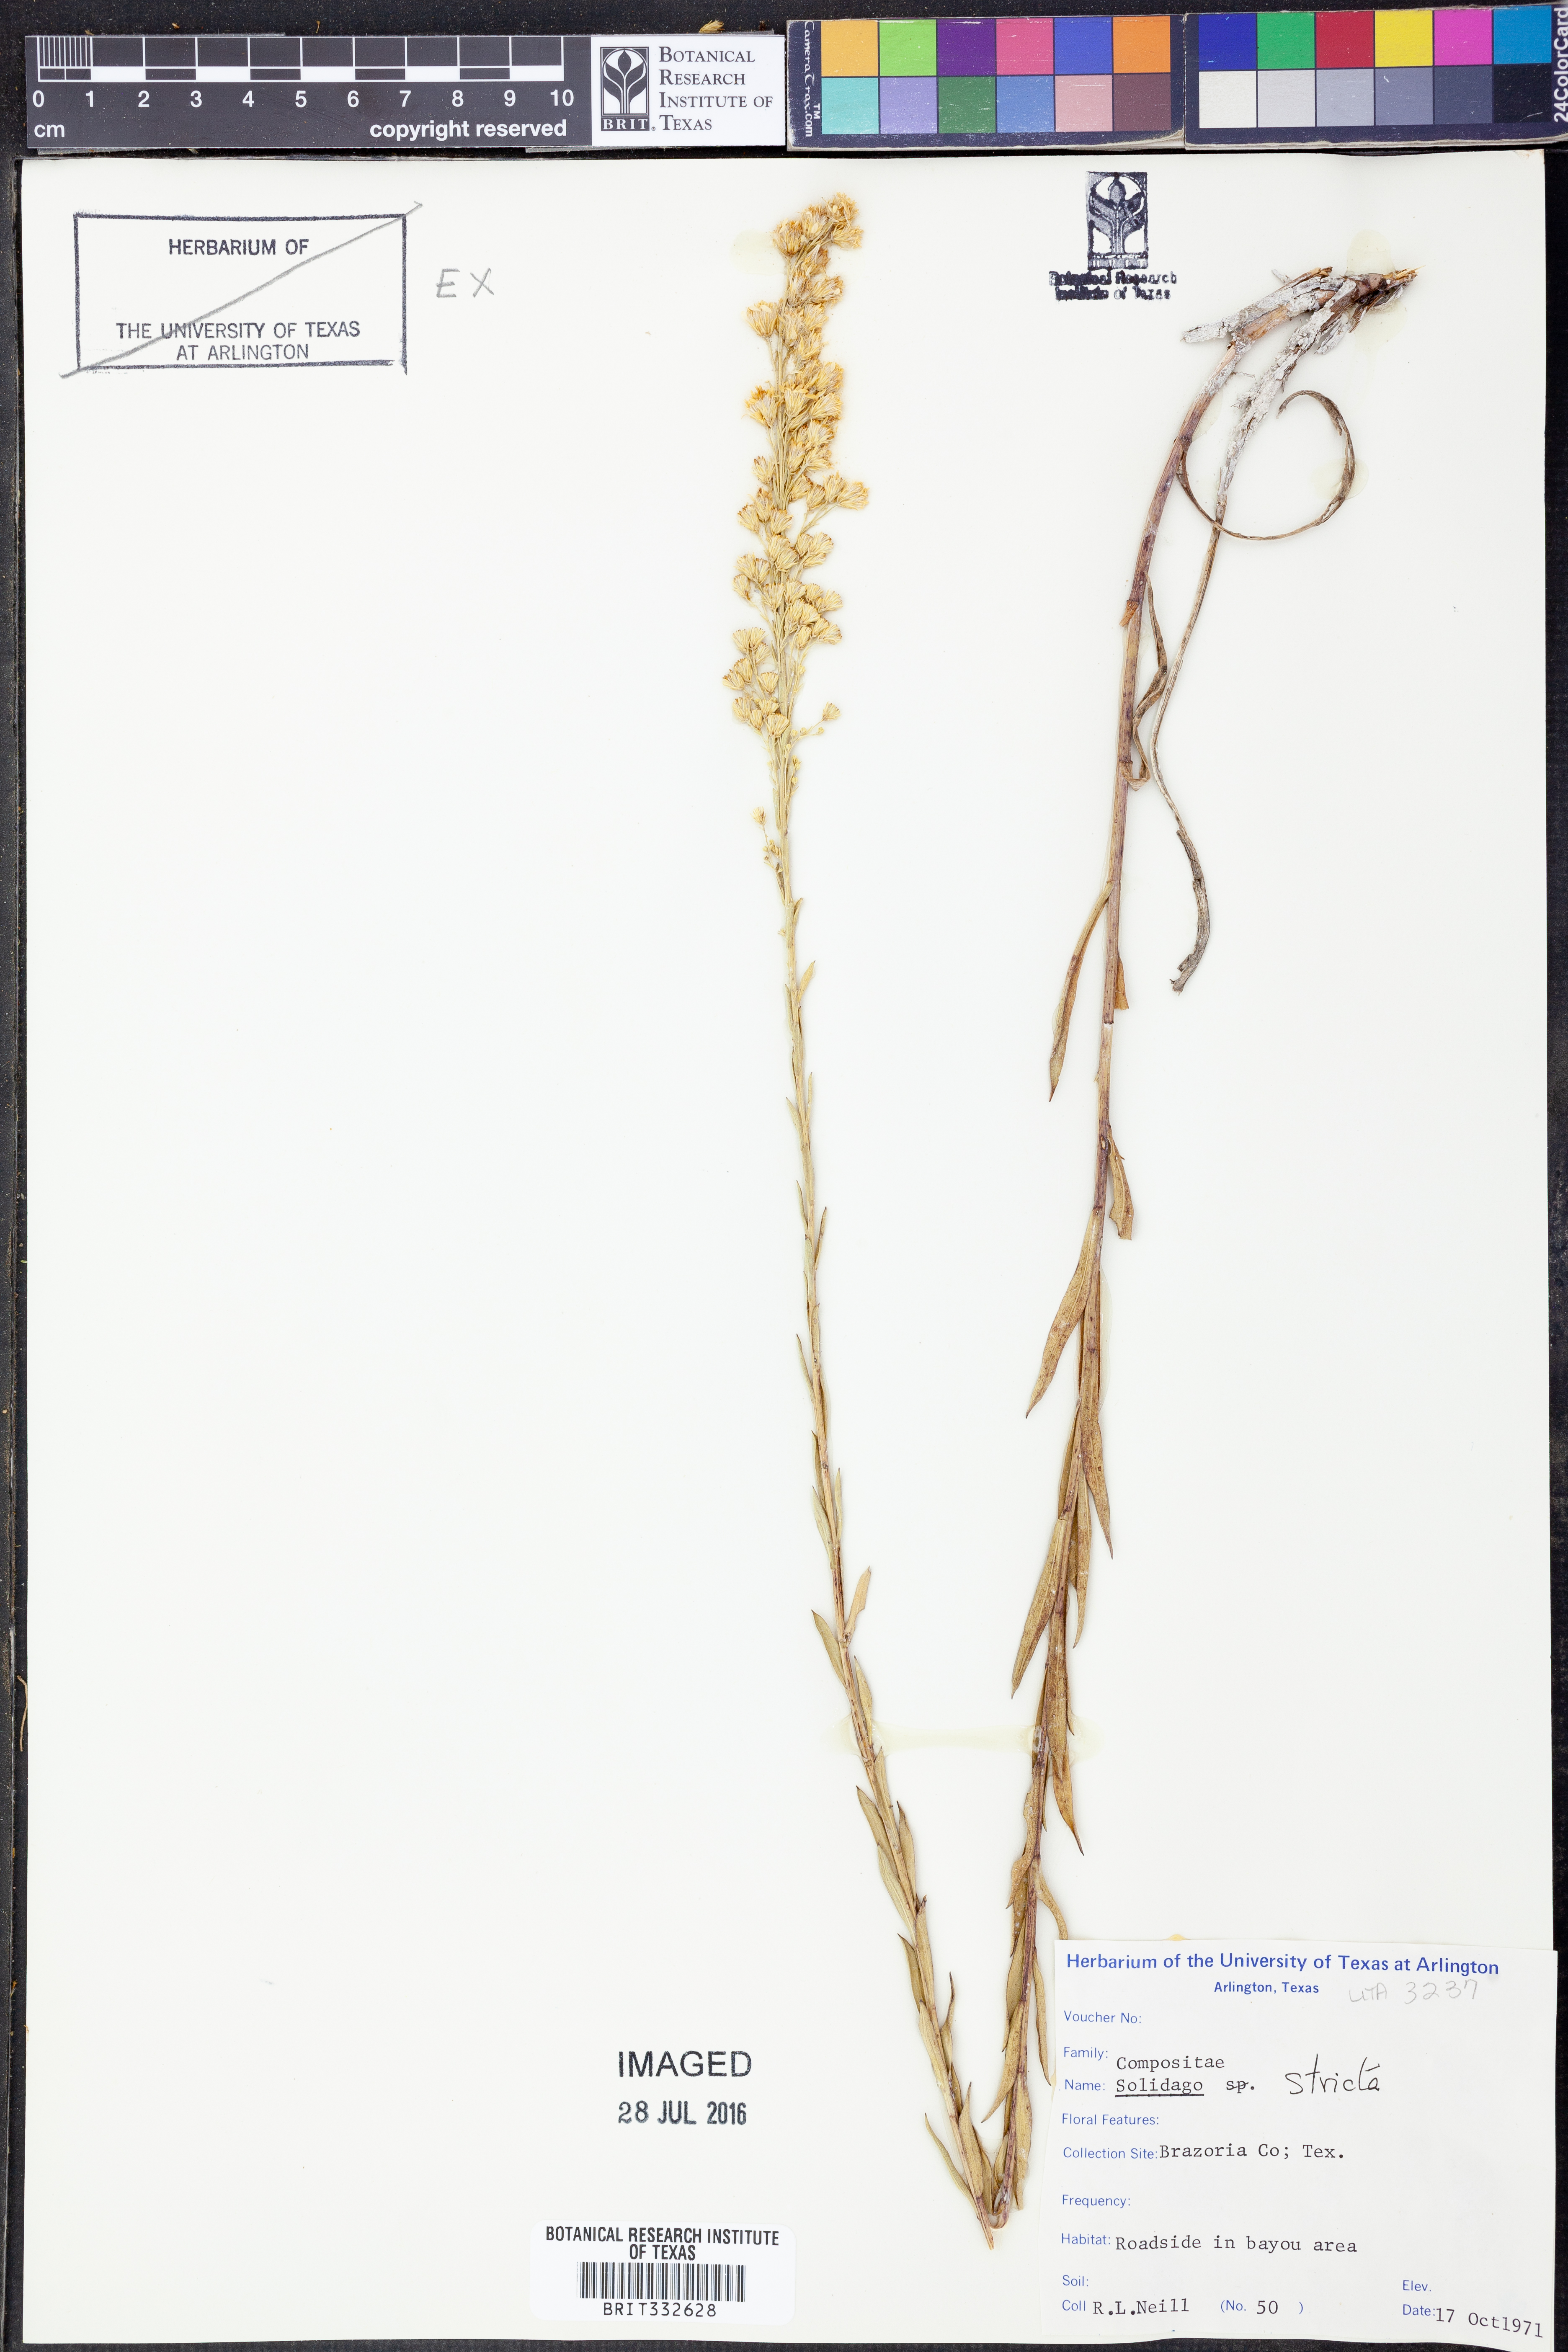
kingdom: Plantae
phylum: Tracheophyta
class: Magnoliopsida
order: Asterales
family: Asteraceae
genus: Solidago
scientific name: Solidago stricta
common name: Pine barren bog goldenrod
